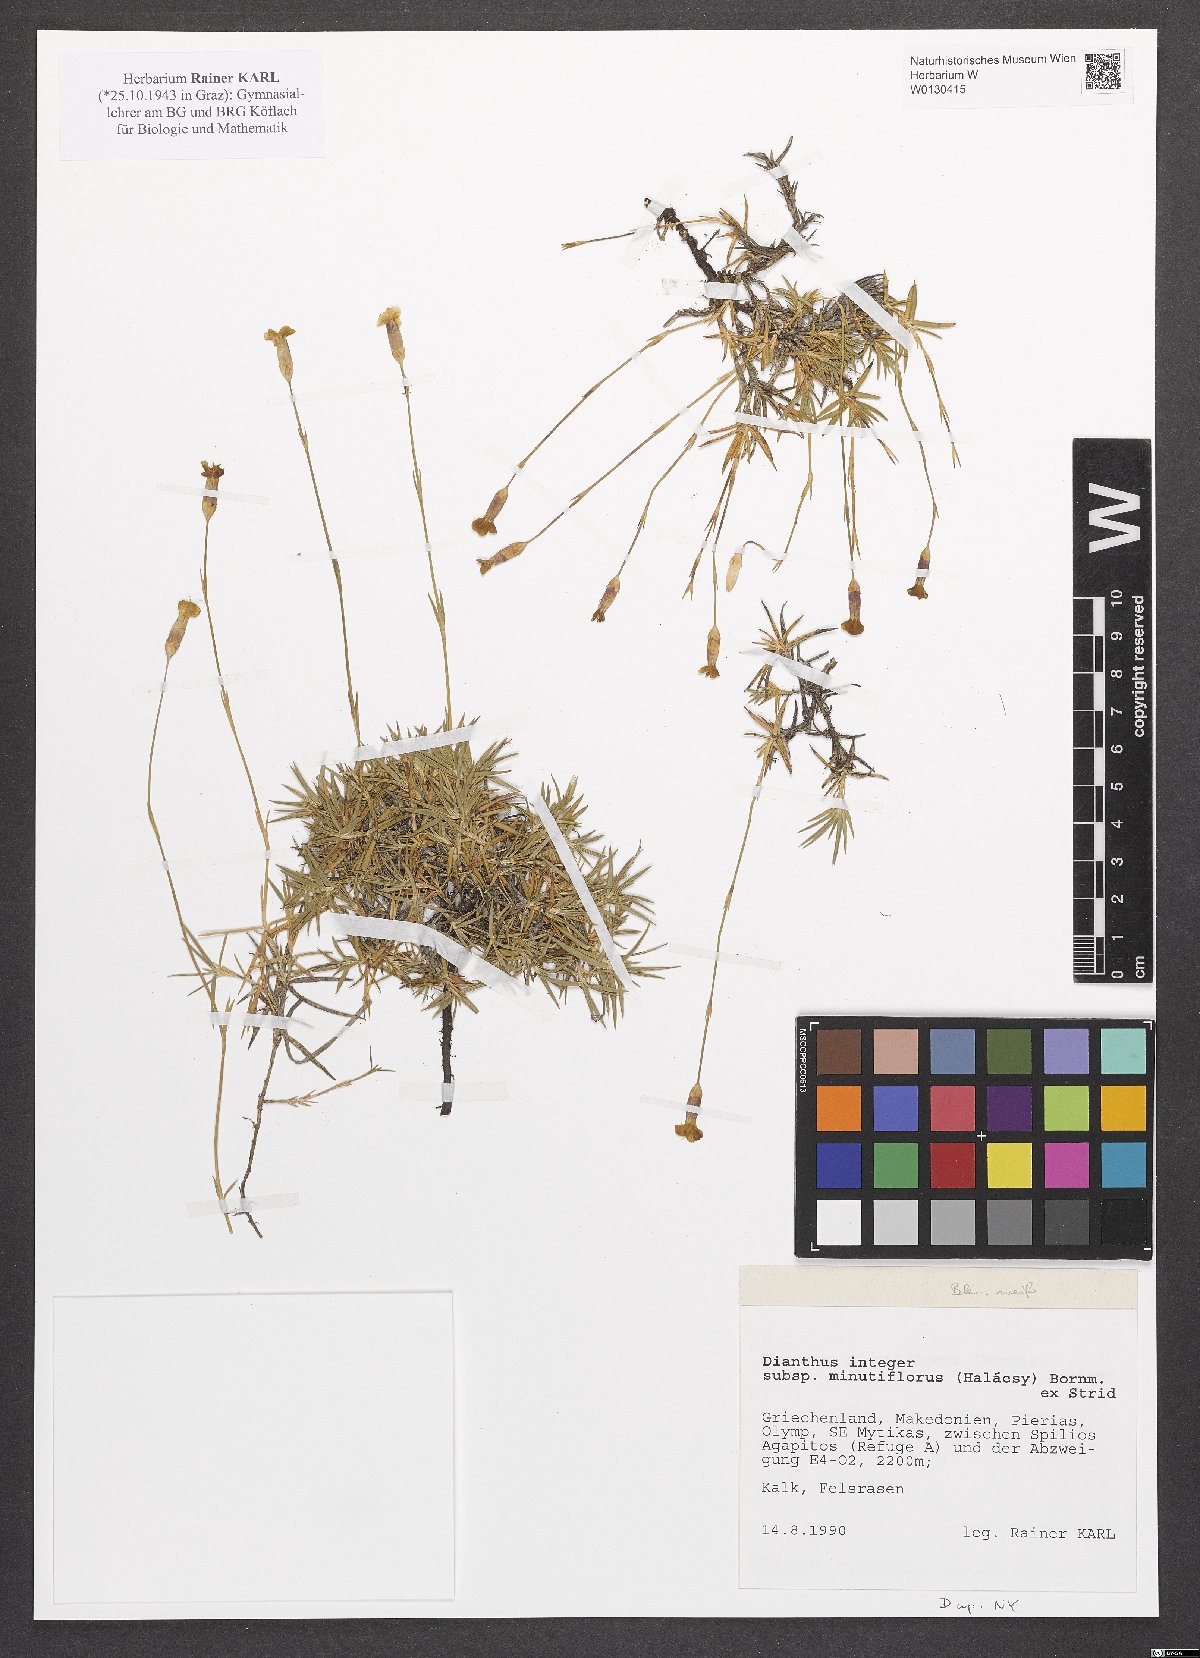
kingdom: Plantae
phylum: Tracheophyta
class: Magnoliopsida
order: Caryophyllales
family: Caryophyllaceae
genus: Dianthus
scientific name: Dianthus integer
